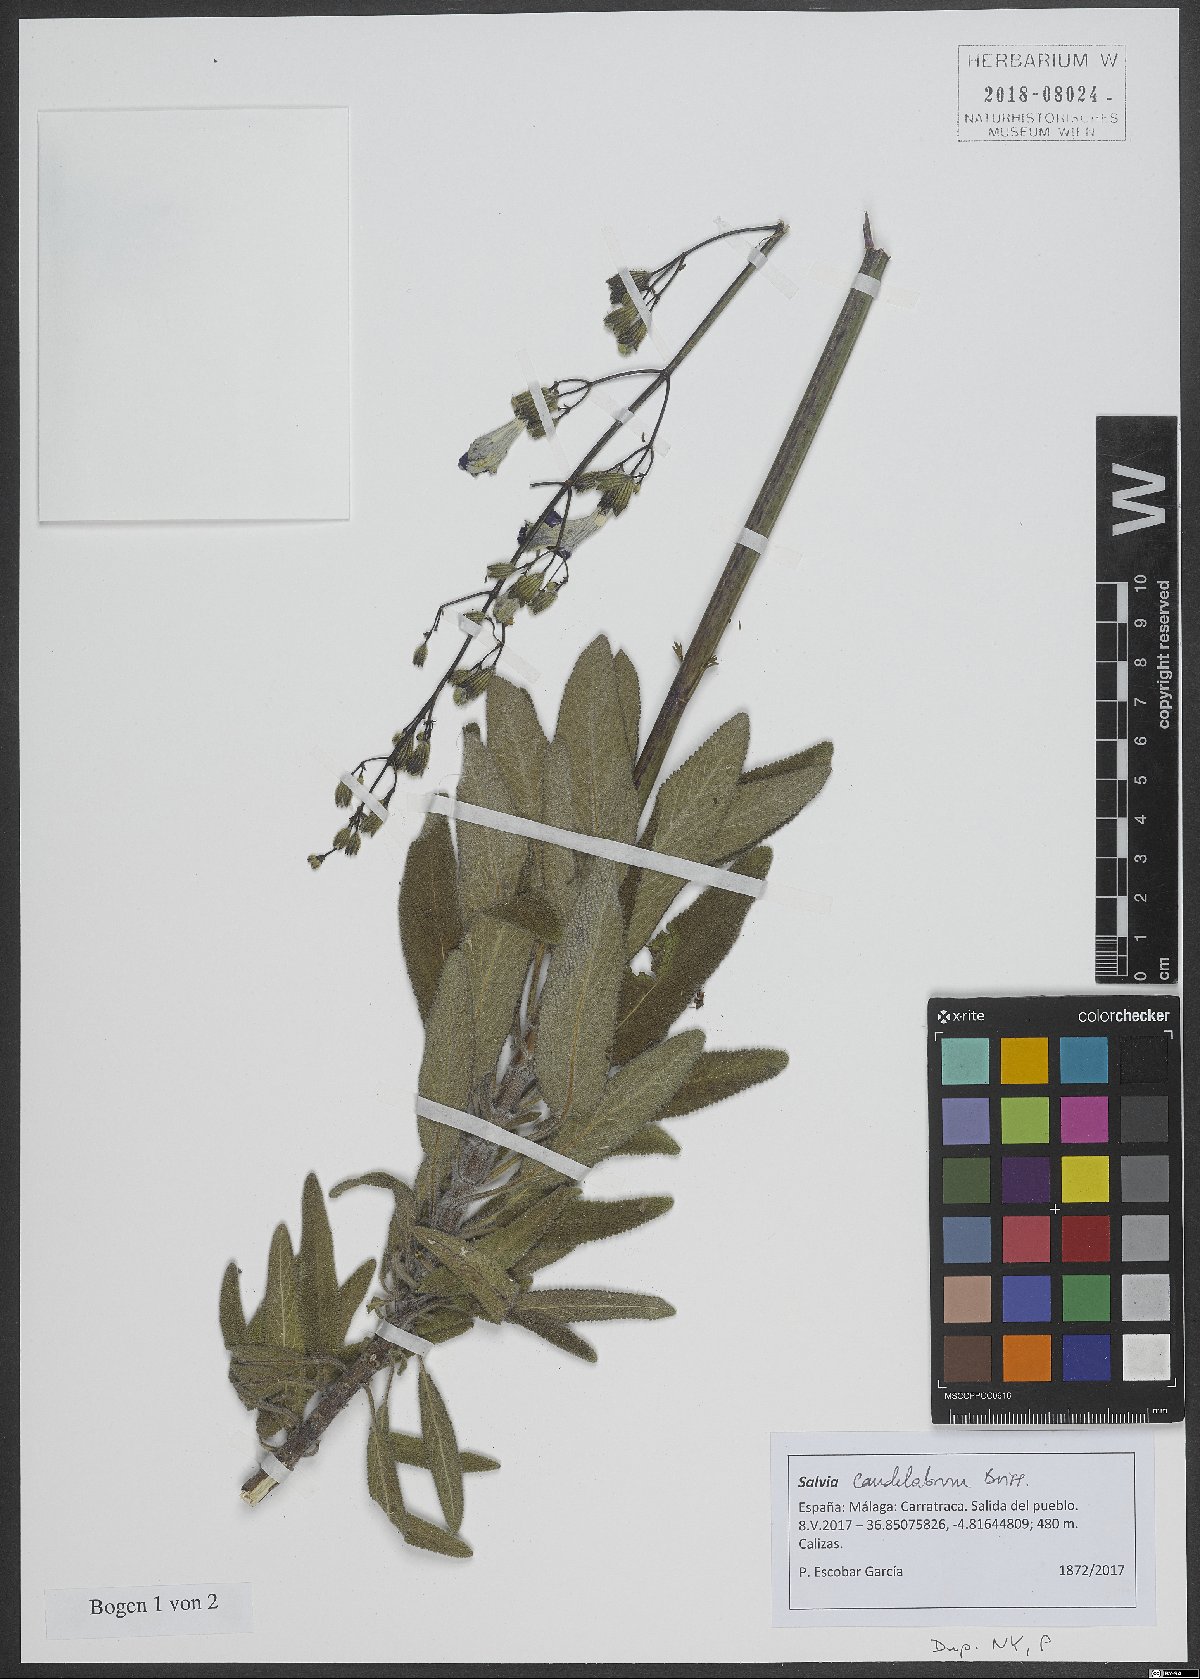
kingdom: Plantae
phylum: Tracheophyta
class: Magnoliopsida
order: Lamiales
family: Lamiaceae
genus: Salvia
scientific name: Salvia candelabrum
